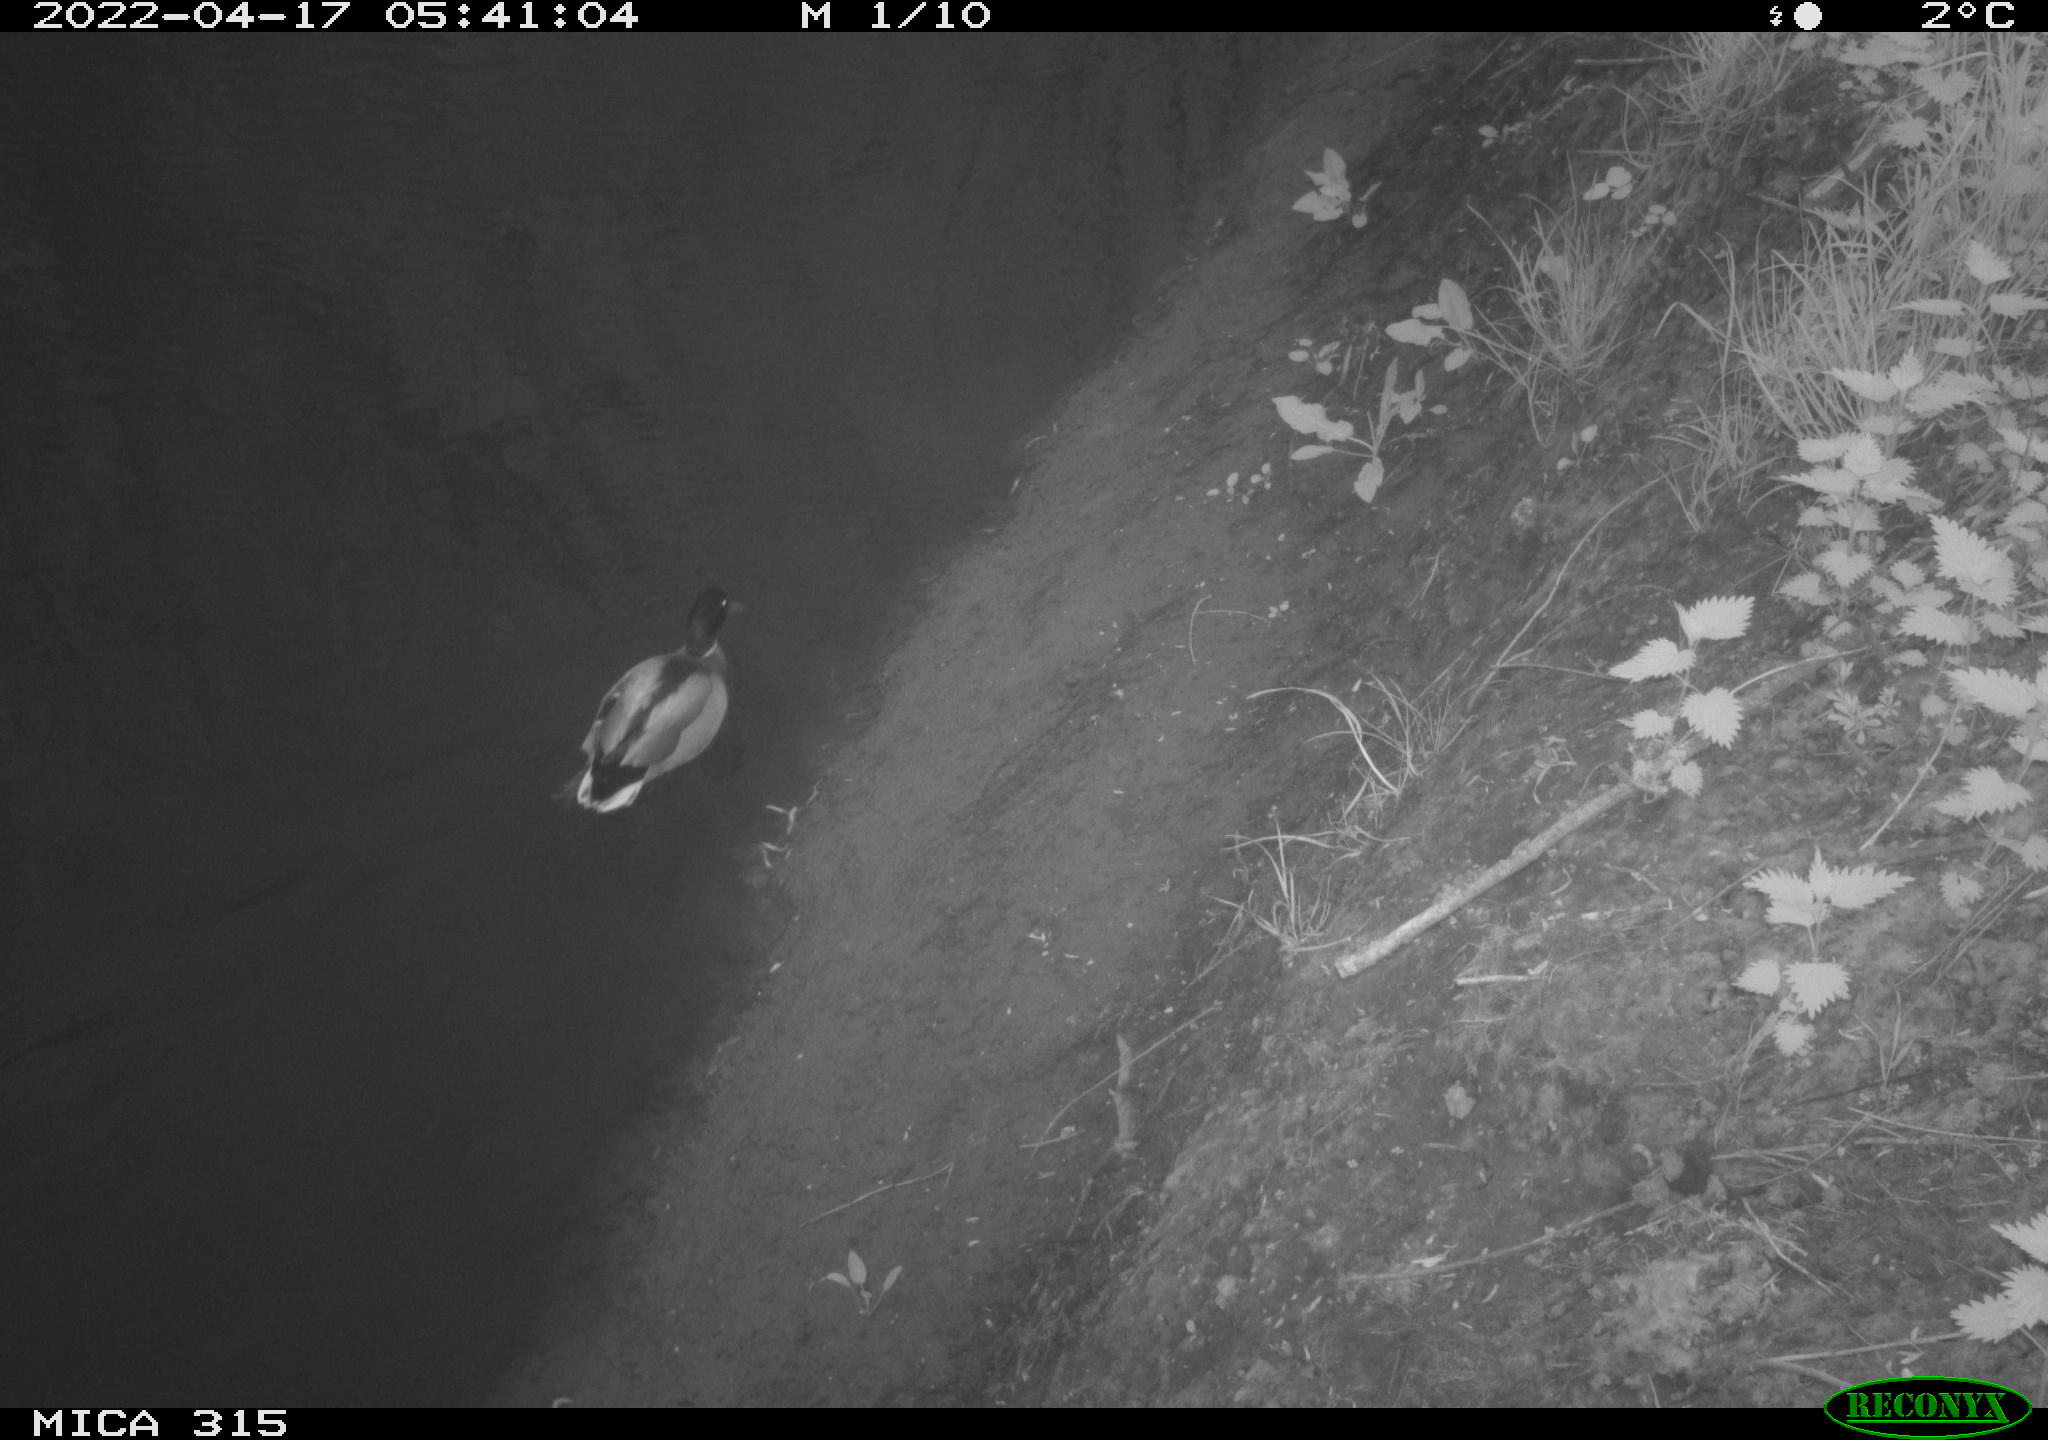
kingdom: Animalia
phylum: Chordata
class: Aves
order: Anseriformes
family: Anatidae
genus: Anas
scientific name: Anas platyrhynchos
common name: Mallard
